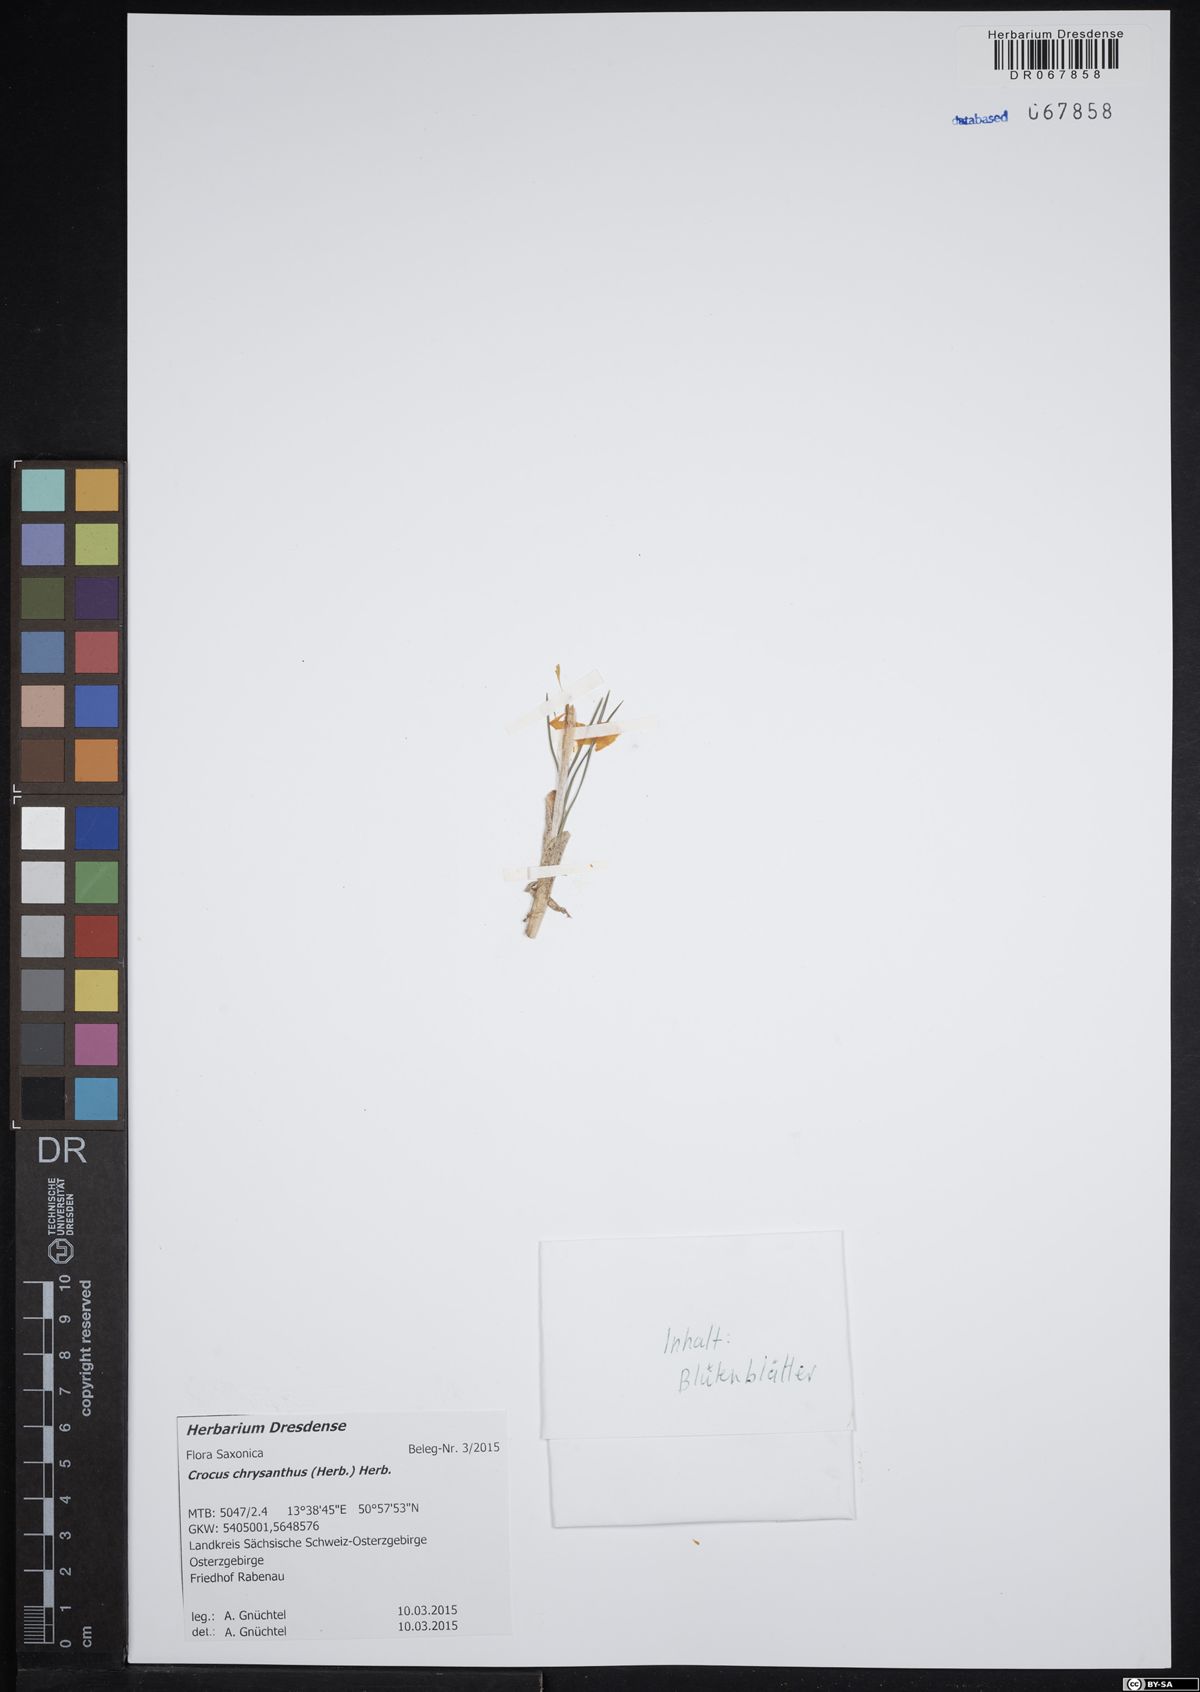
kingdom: Plantae
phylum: Tracheophyta
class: Liliopsida
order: Asparagales
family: Iridaceae
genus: Crocus
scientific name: Crocus chrysanthus
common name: Golden crocus
